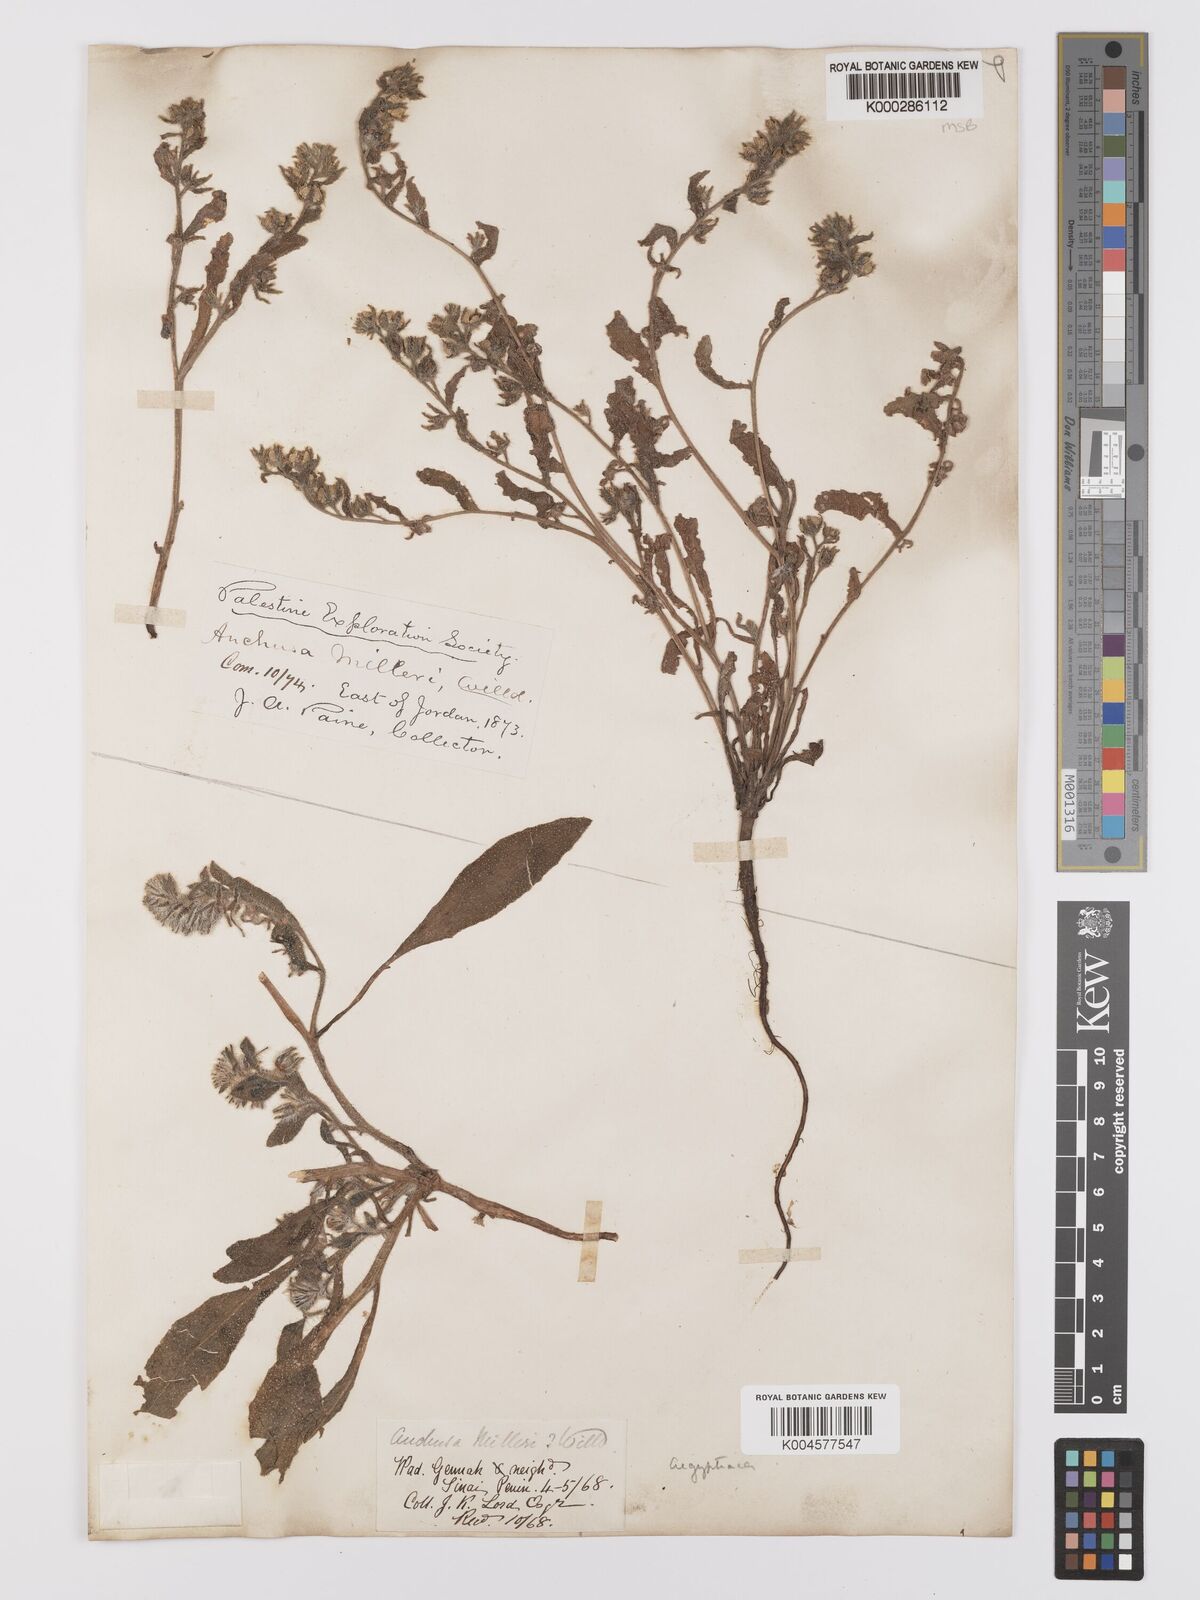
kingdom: Plantae
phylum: Tracheophyta
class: Magnoliopsida
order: Boraginales
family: Boraginaceae
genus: Anchusa
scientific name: Anchusa
